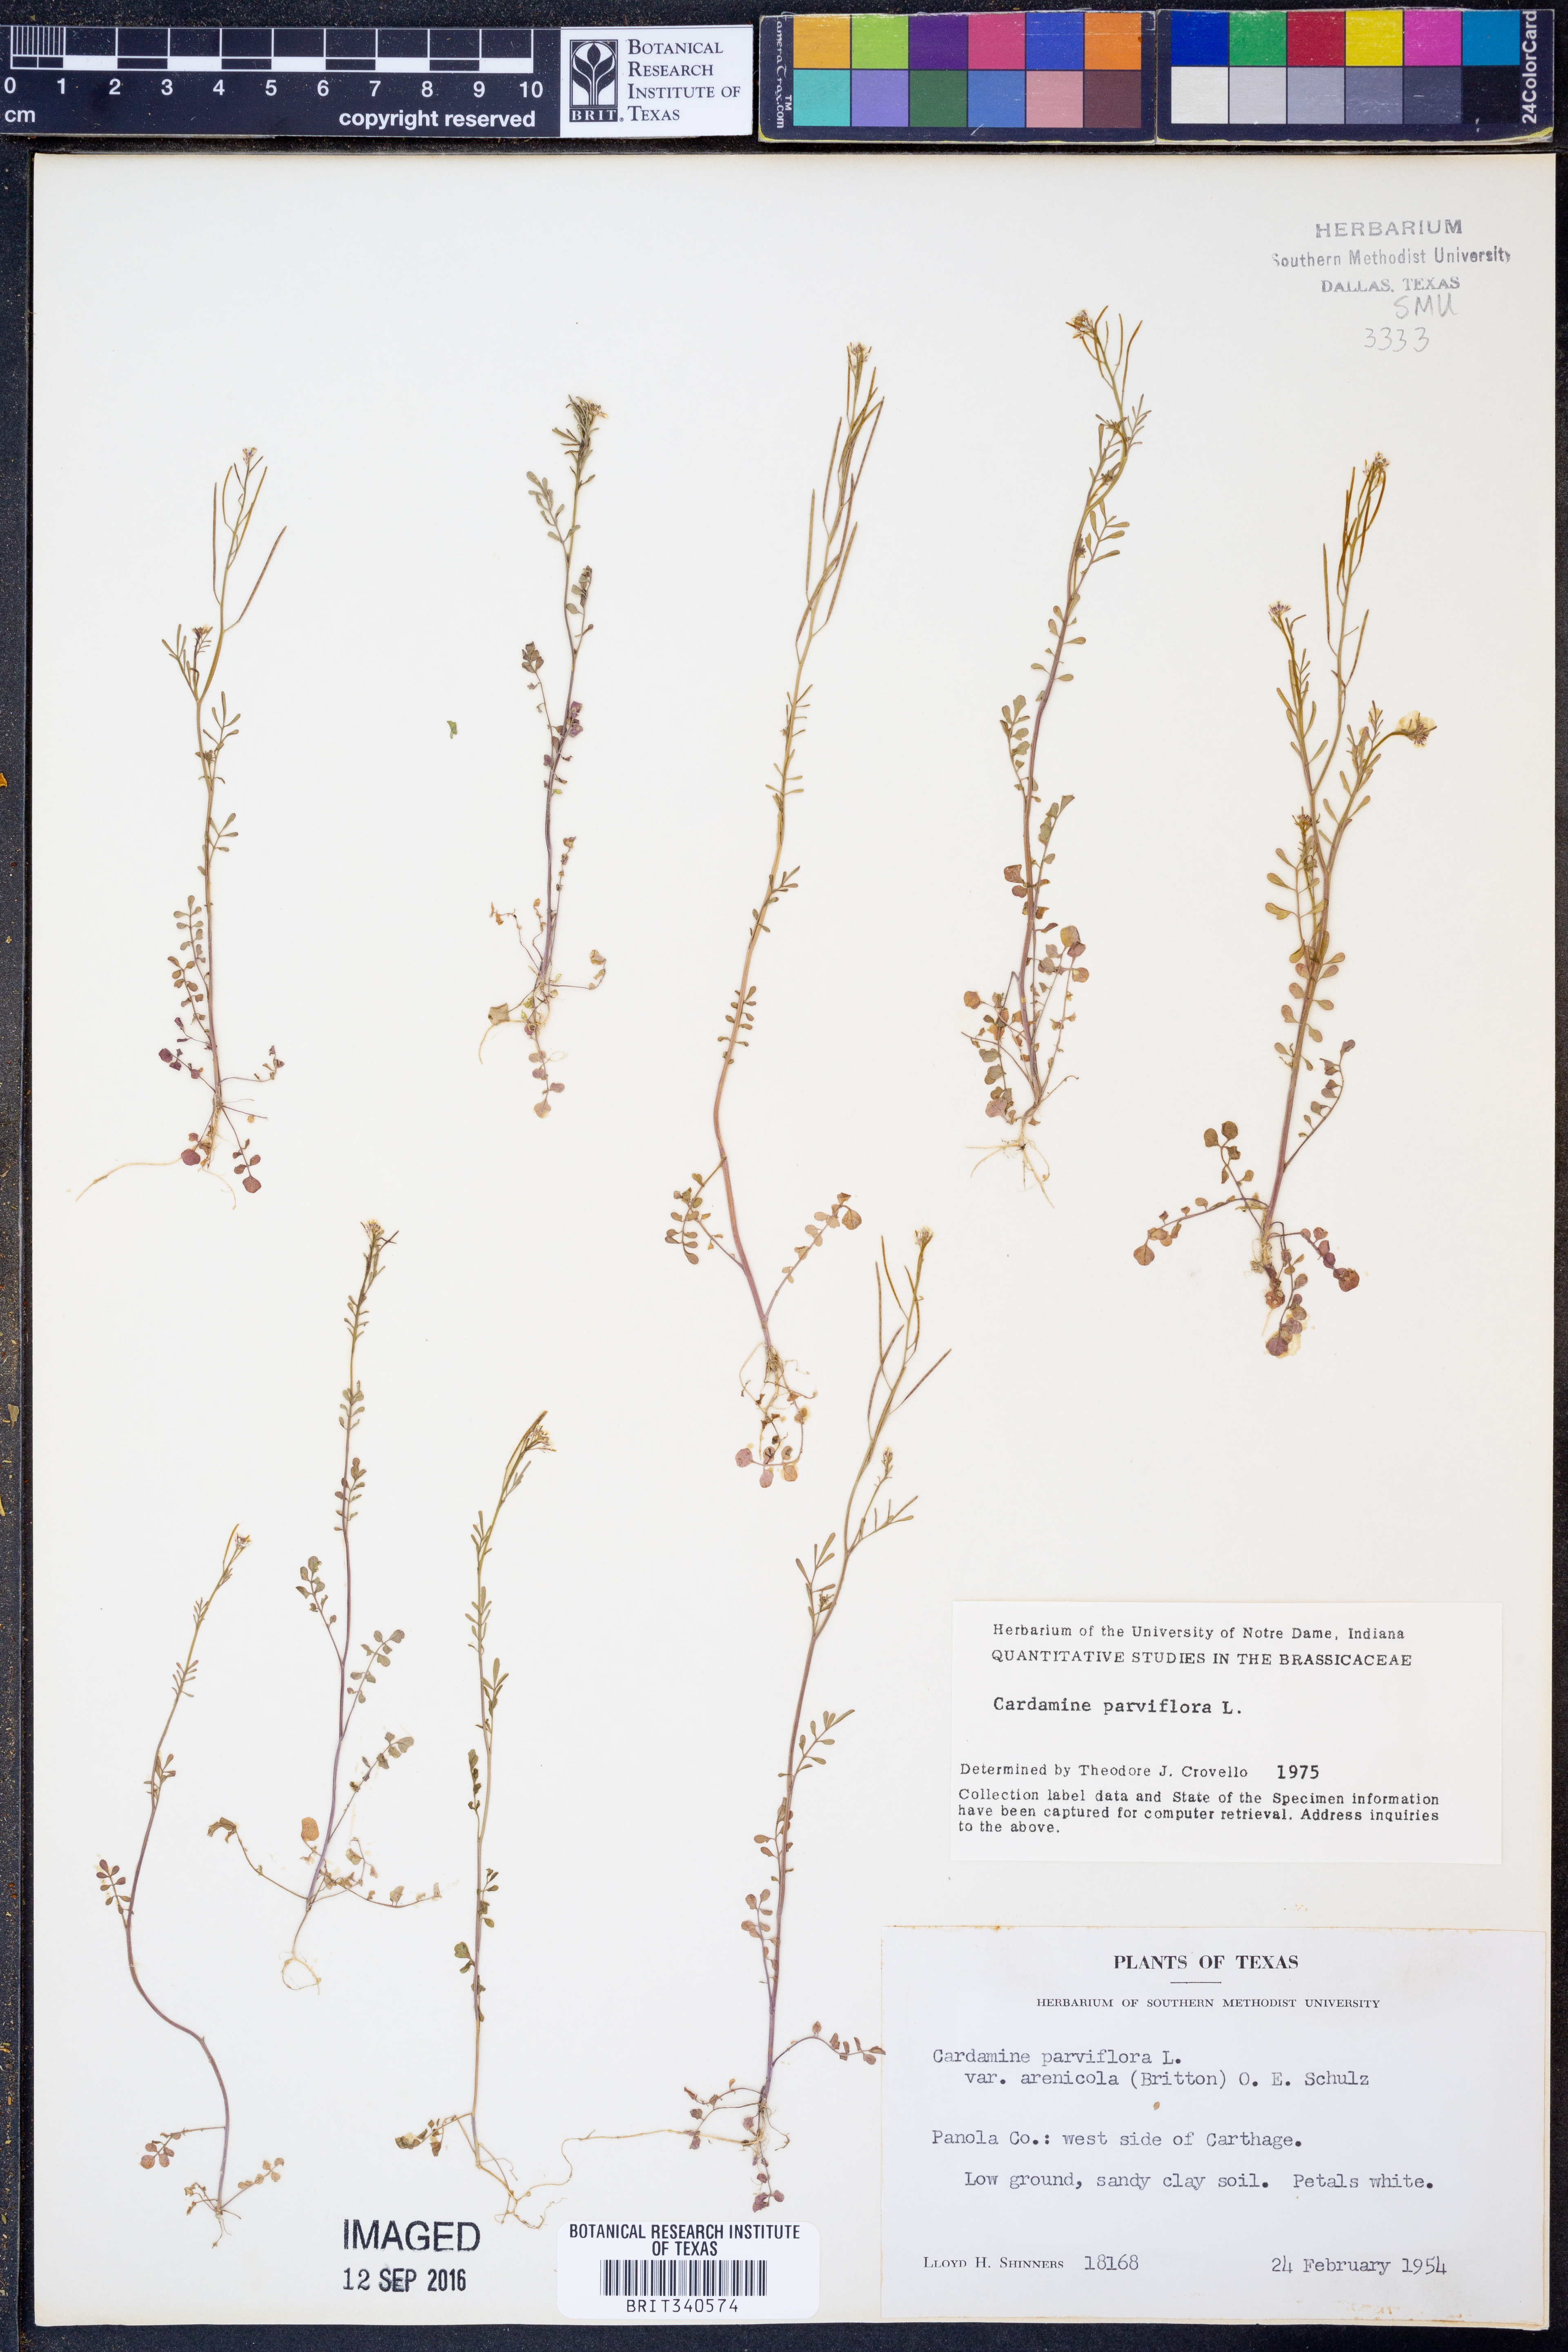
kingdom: Plantae
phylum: Tracheophyta
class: Magnoliopsida
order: Brassicales
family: Brassicaceae
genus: Cardamine
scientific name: Cardamine parviflora
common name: Sand bittercress
